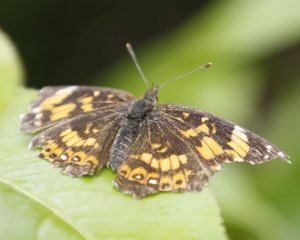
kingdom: Animalia
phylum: Arthropoda
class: Insecta
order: Lepidoptera
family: Nymphalidae
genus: Chlosyne
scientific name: Chlosyne nycteis
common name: Silvery Checkerspot
